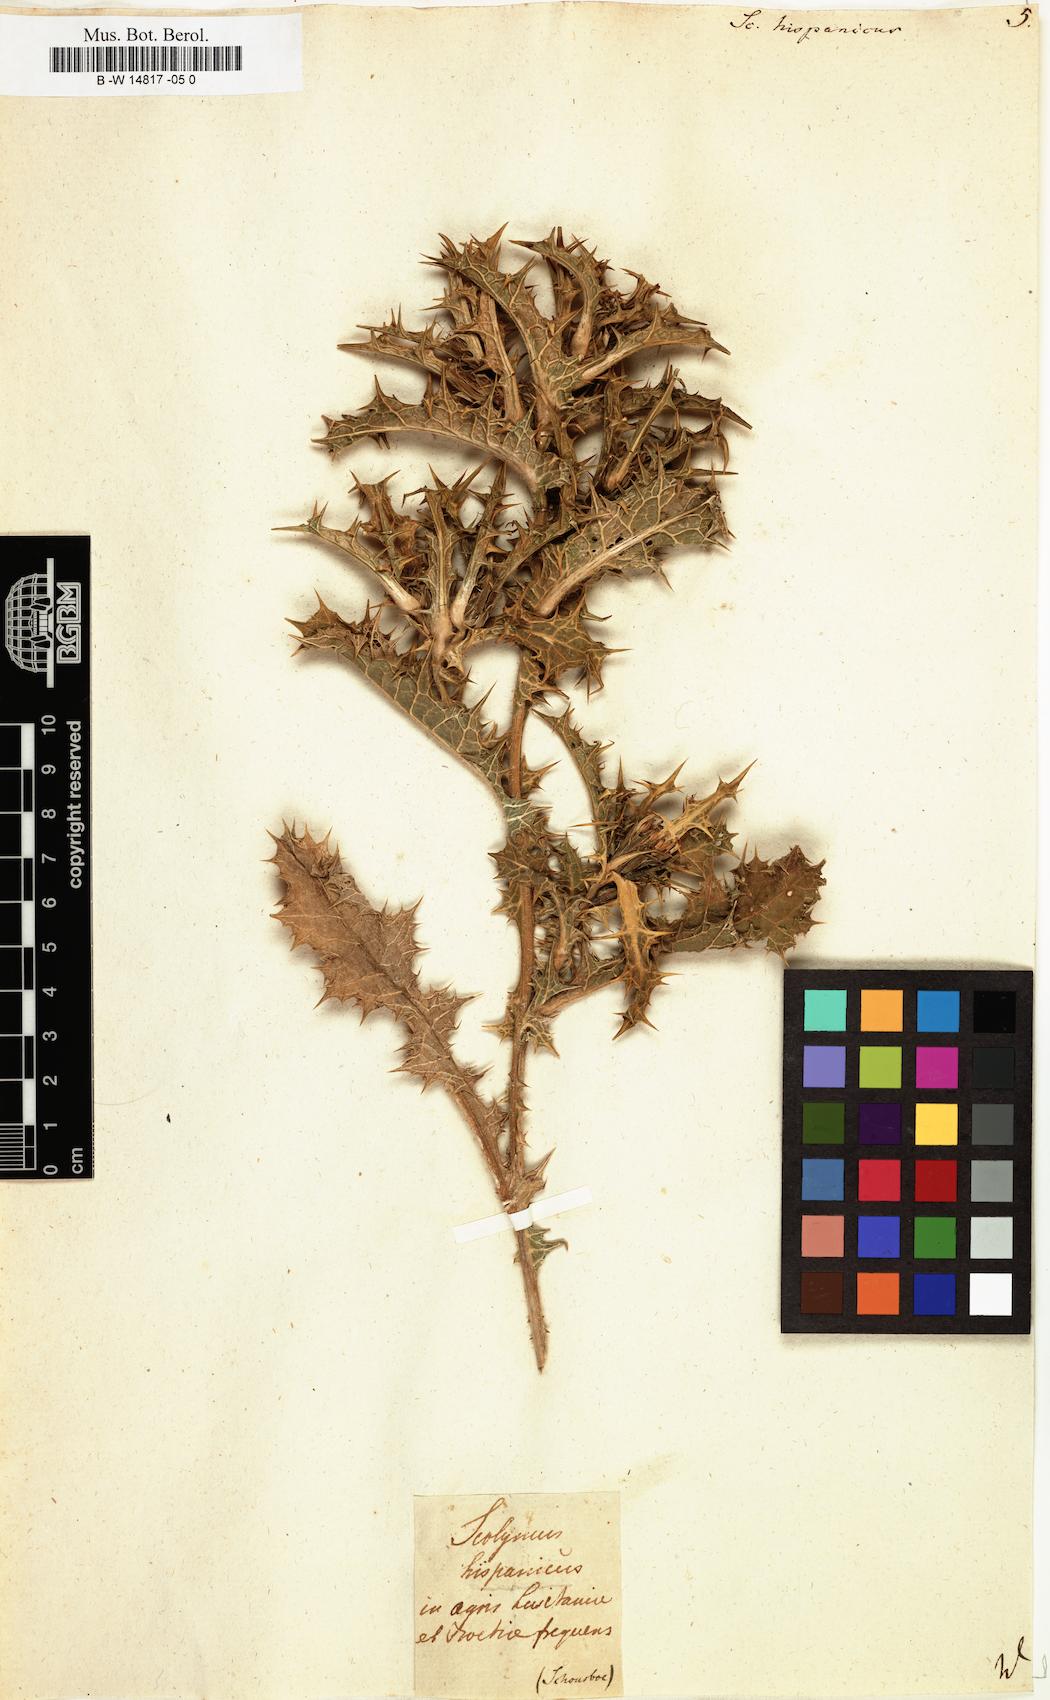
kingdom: Plantae
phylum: Tracheophyta
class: Magnoliopsida
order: Asterales
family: Asteraceae
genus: Scolymus
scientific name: Scolymus hispanicus
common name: Golden thistle
